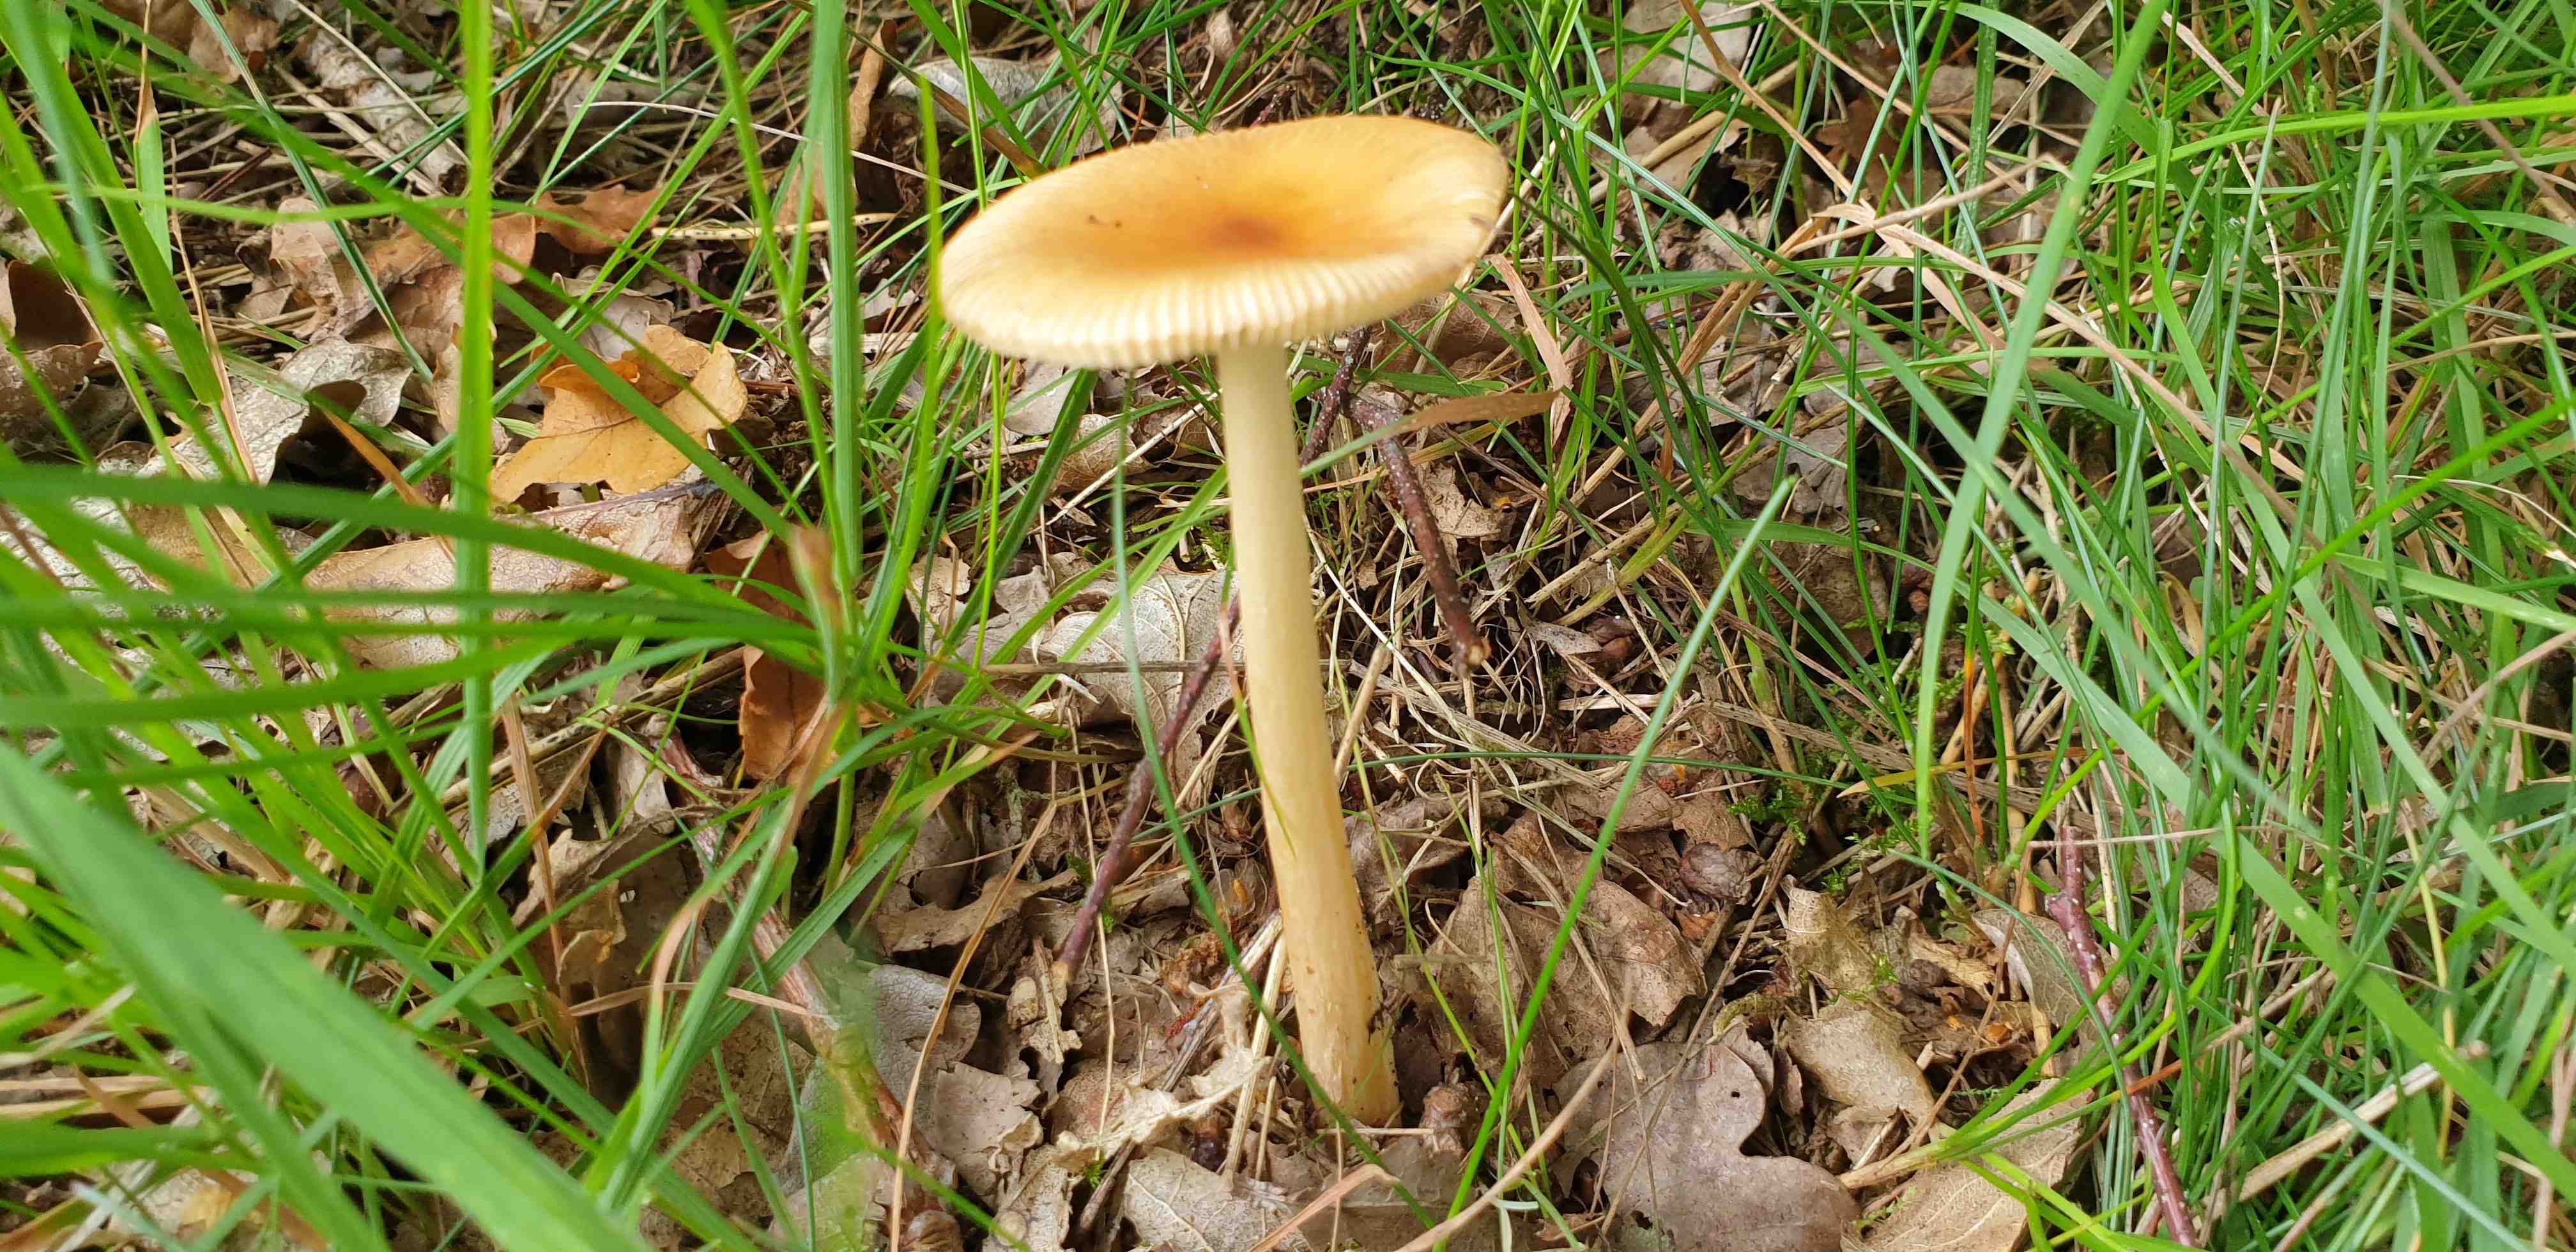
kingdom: Fungi
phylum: Basidiomycota
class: Agaricomycetes
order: Agaricales
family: Amanitaceae
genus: Amanita
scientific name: Amanita fulva
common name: brun kam-fluesvamp
